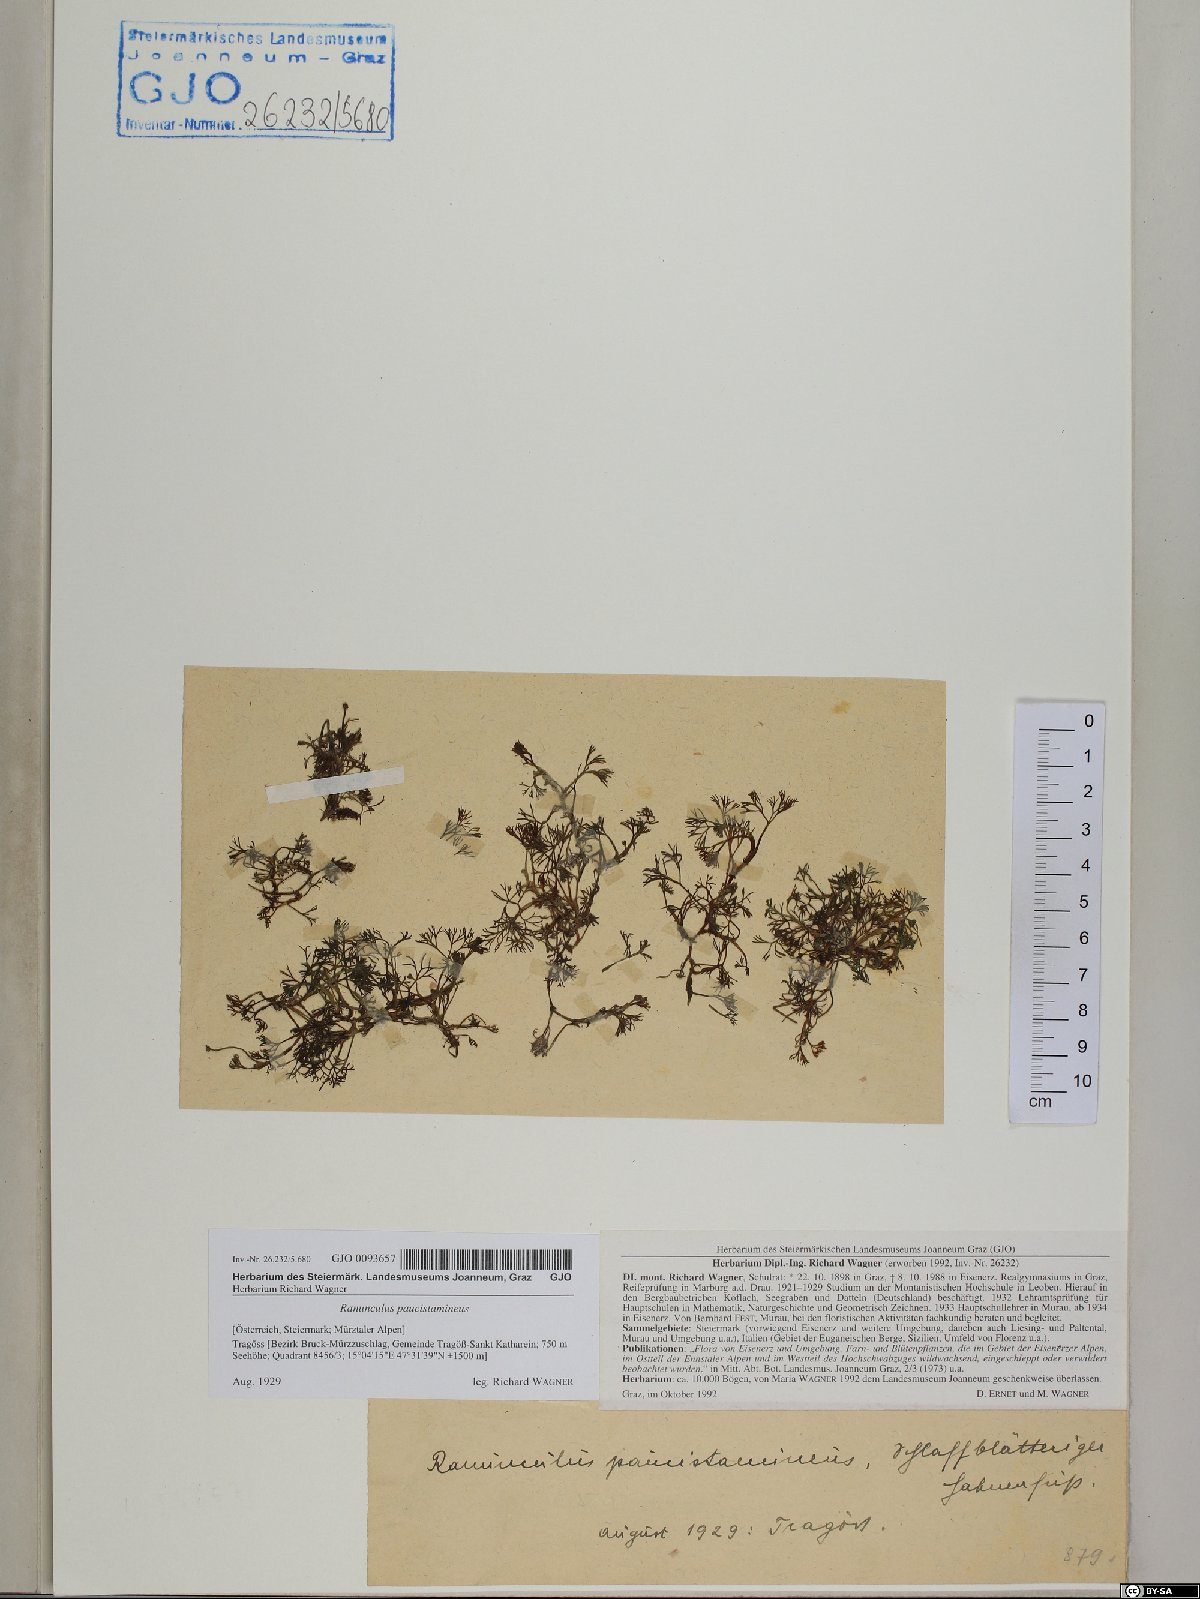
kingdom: Plantae
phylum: Tracheophyta
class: Magnoliopsida
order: Ranunculales
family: Ranunculaceae
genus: Ranunculus
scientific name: Ranunculus
